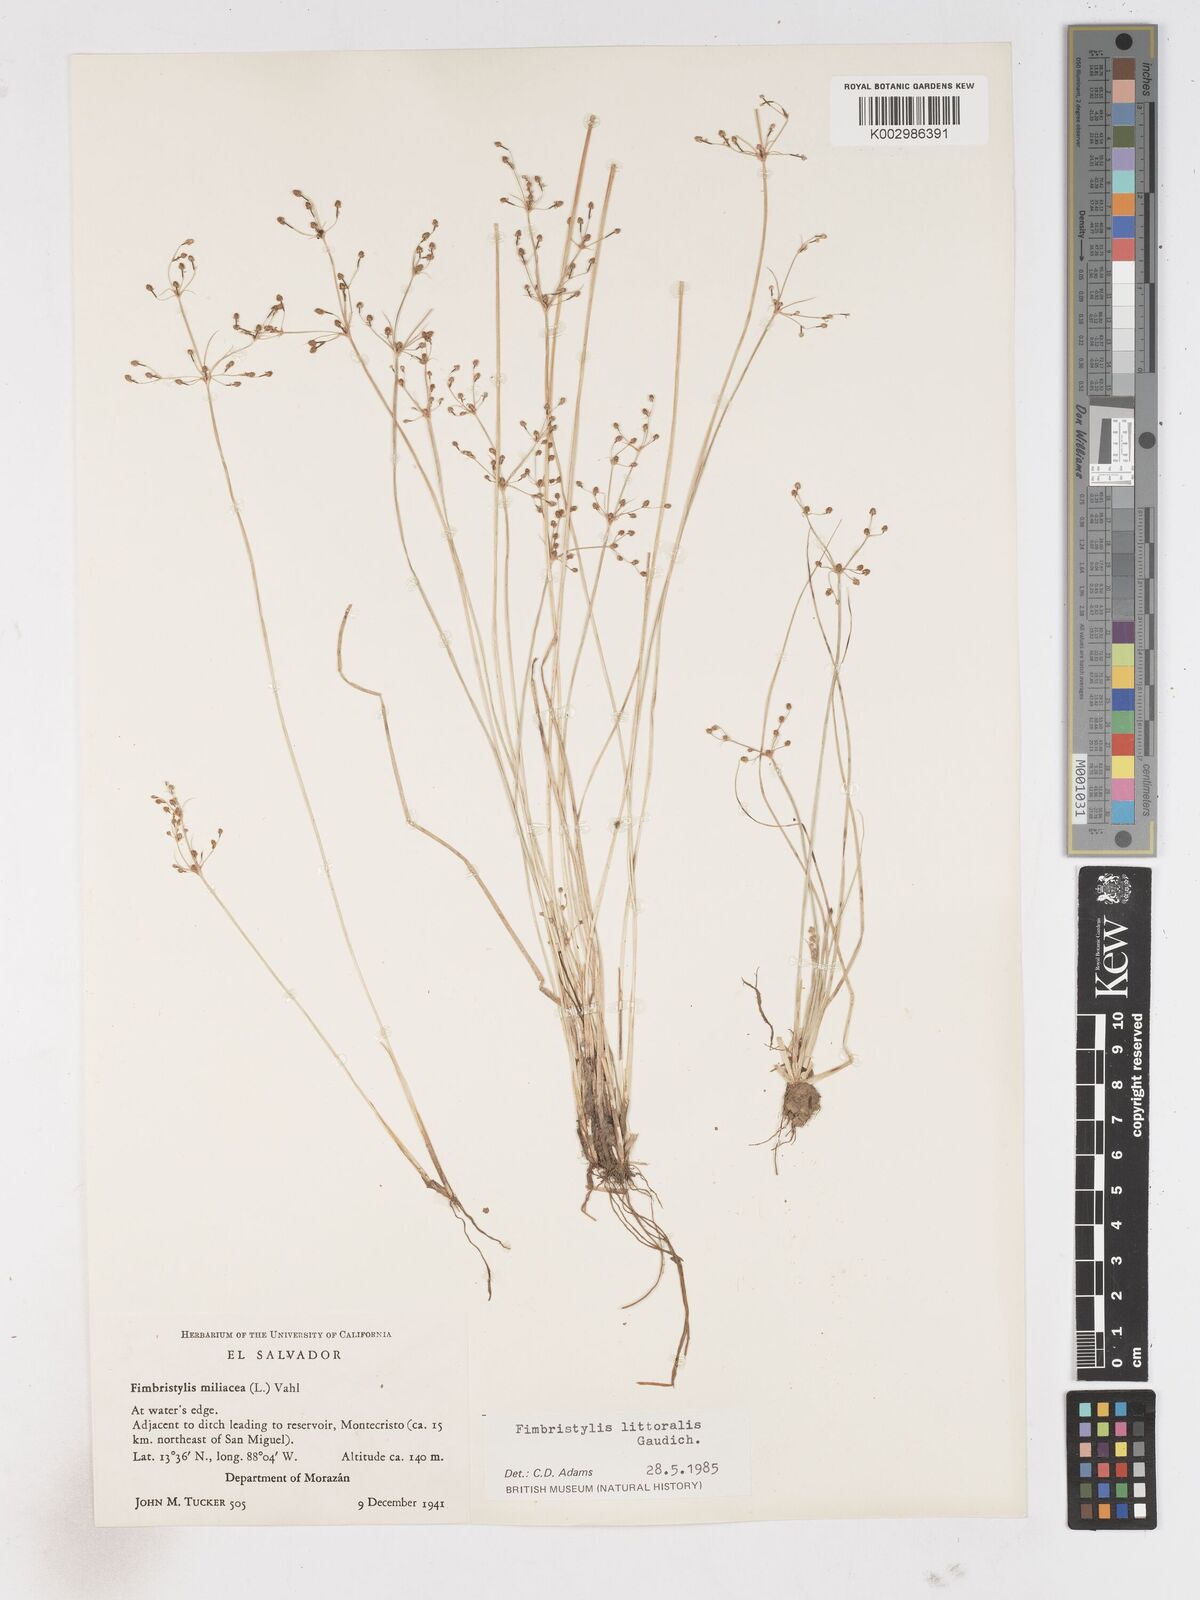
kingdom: Plantae
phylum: Tracheophyta
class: Liliopsida
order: Poales
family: Cyperaceae
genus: Fimbristylis
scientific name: Fimbristylis littoralis
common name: Fimbry
